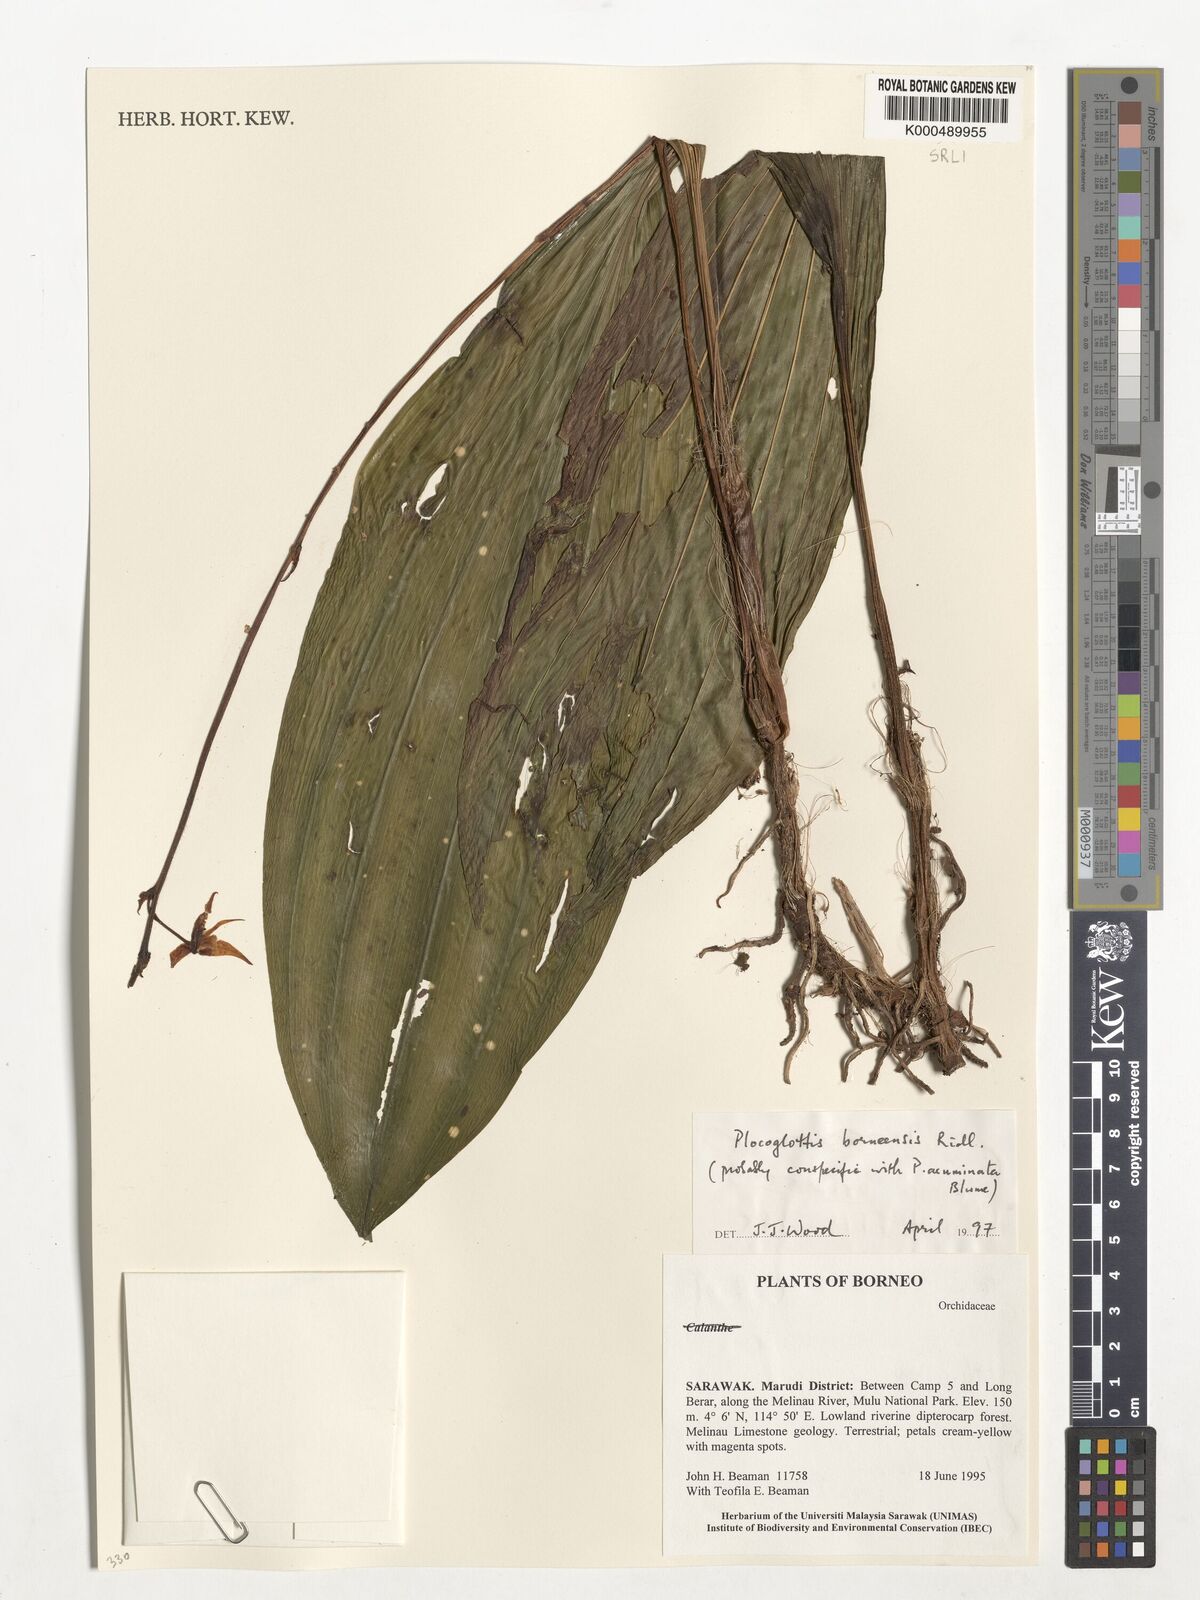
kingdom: Plantae
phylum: Tracheophyta
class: Liliopsida
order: Asparagales
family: Orchidaceae
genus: Plocoglottis
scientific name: Plocoglottis borneensis
